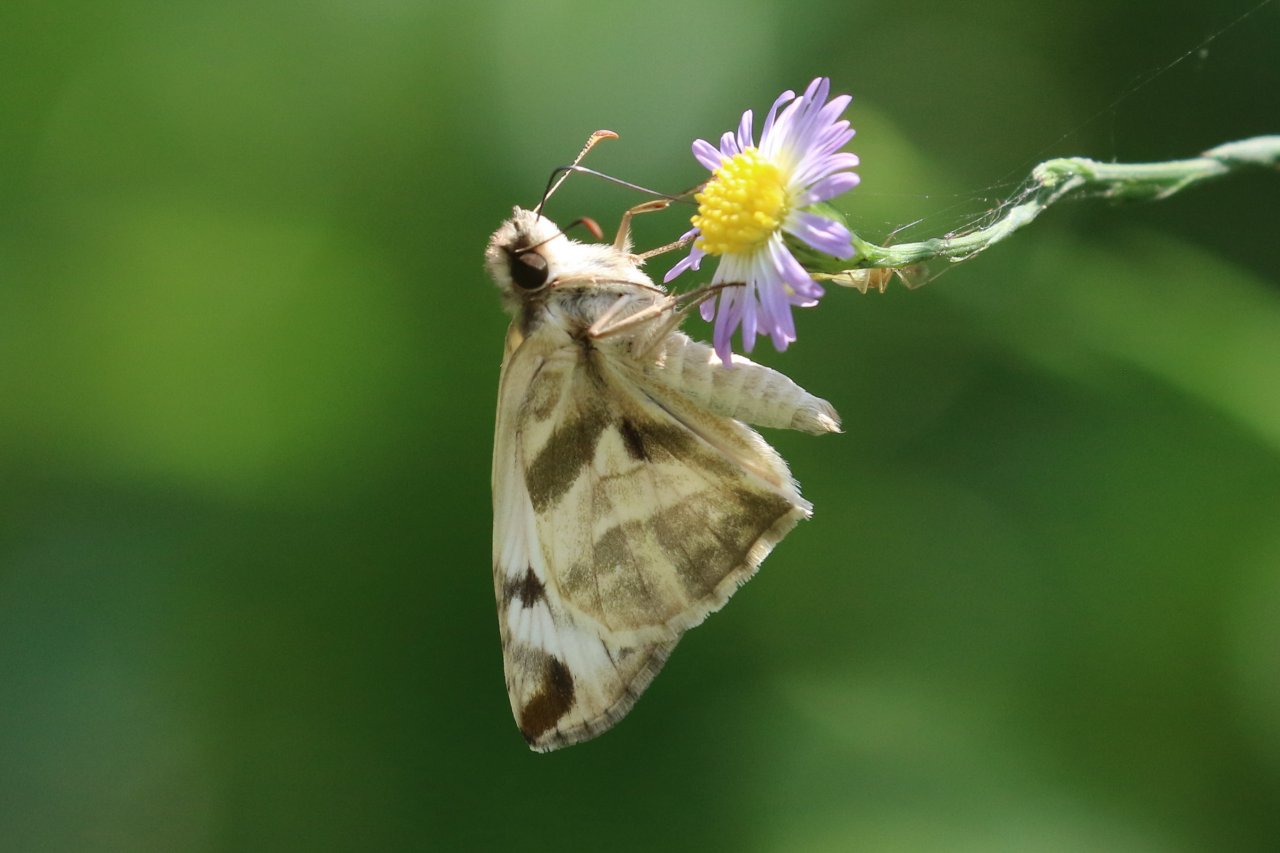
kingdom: Animalia
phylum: Arthropoda
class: Insecta
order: Lepidoptera
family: Hesperiidae
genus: Heliopetes
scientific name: Heliopetes laviana
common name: Laviana White-Skipper
